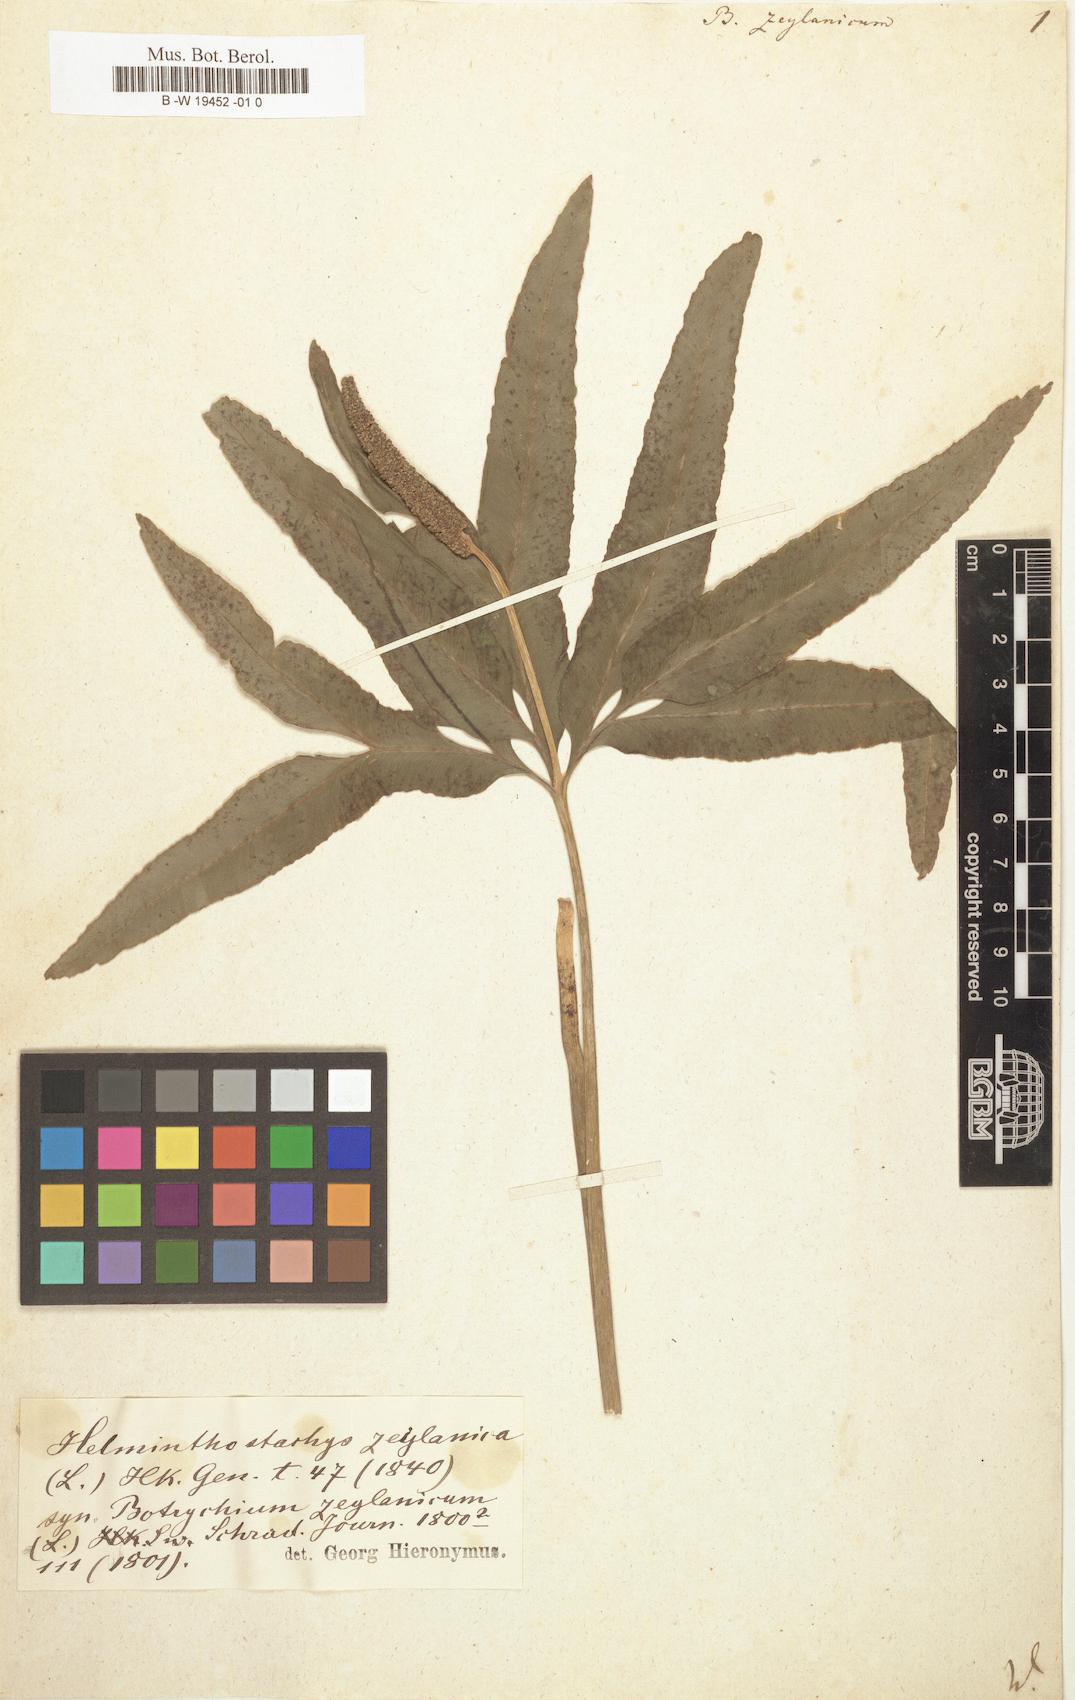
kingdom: Plantae
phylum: Tracheophyta
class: Polypodiopsida
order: Ophioglossales
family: Ophioglossaceae
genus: Helminthostachys
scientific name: Helminthostachys zeylanica
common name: Flowering fern
